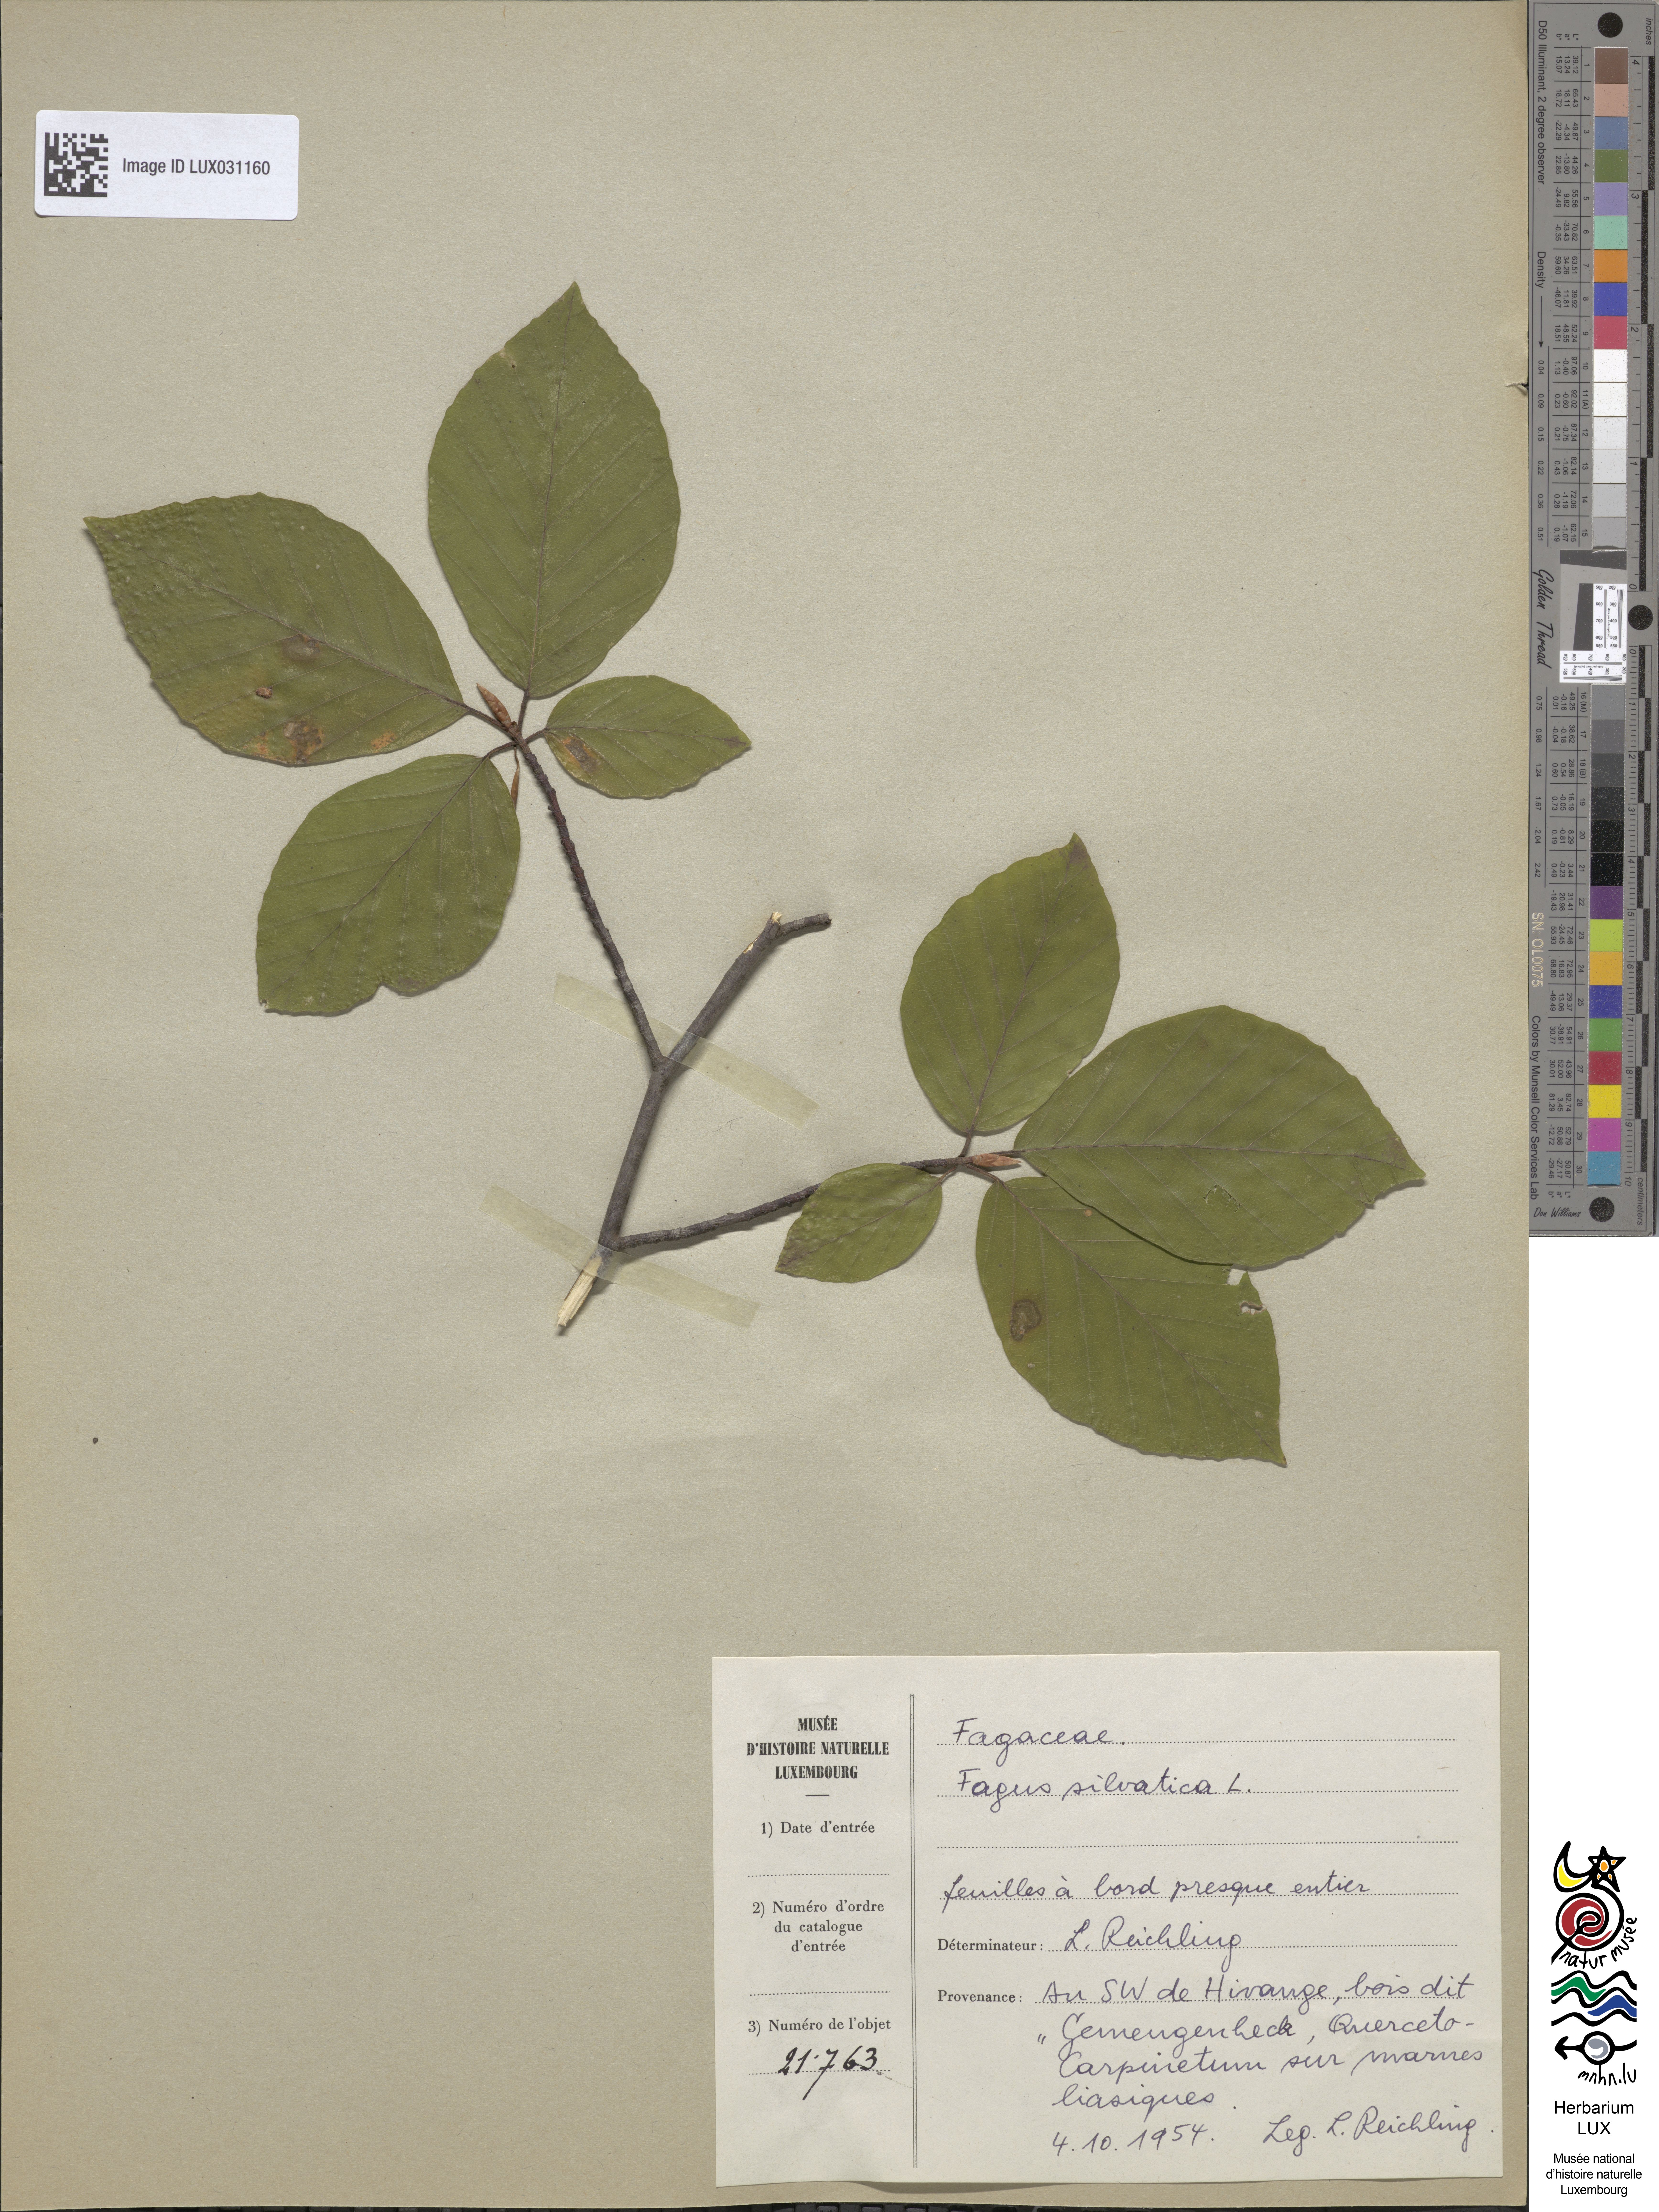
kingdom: Plantae
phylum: Tracheophyta
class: Magnoliopsida
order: Fagales
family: Fagaceae
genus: Fagus
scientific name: Fagus sylvatica
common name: Beech
